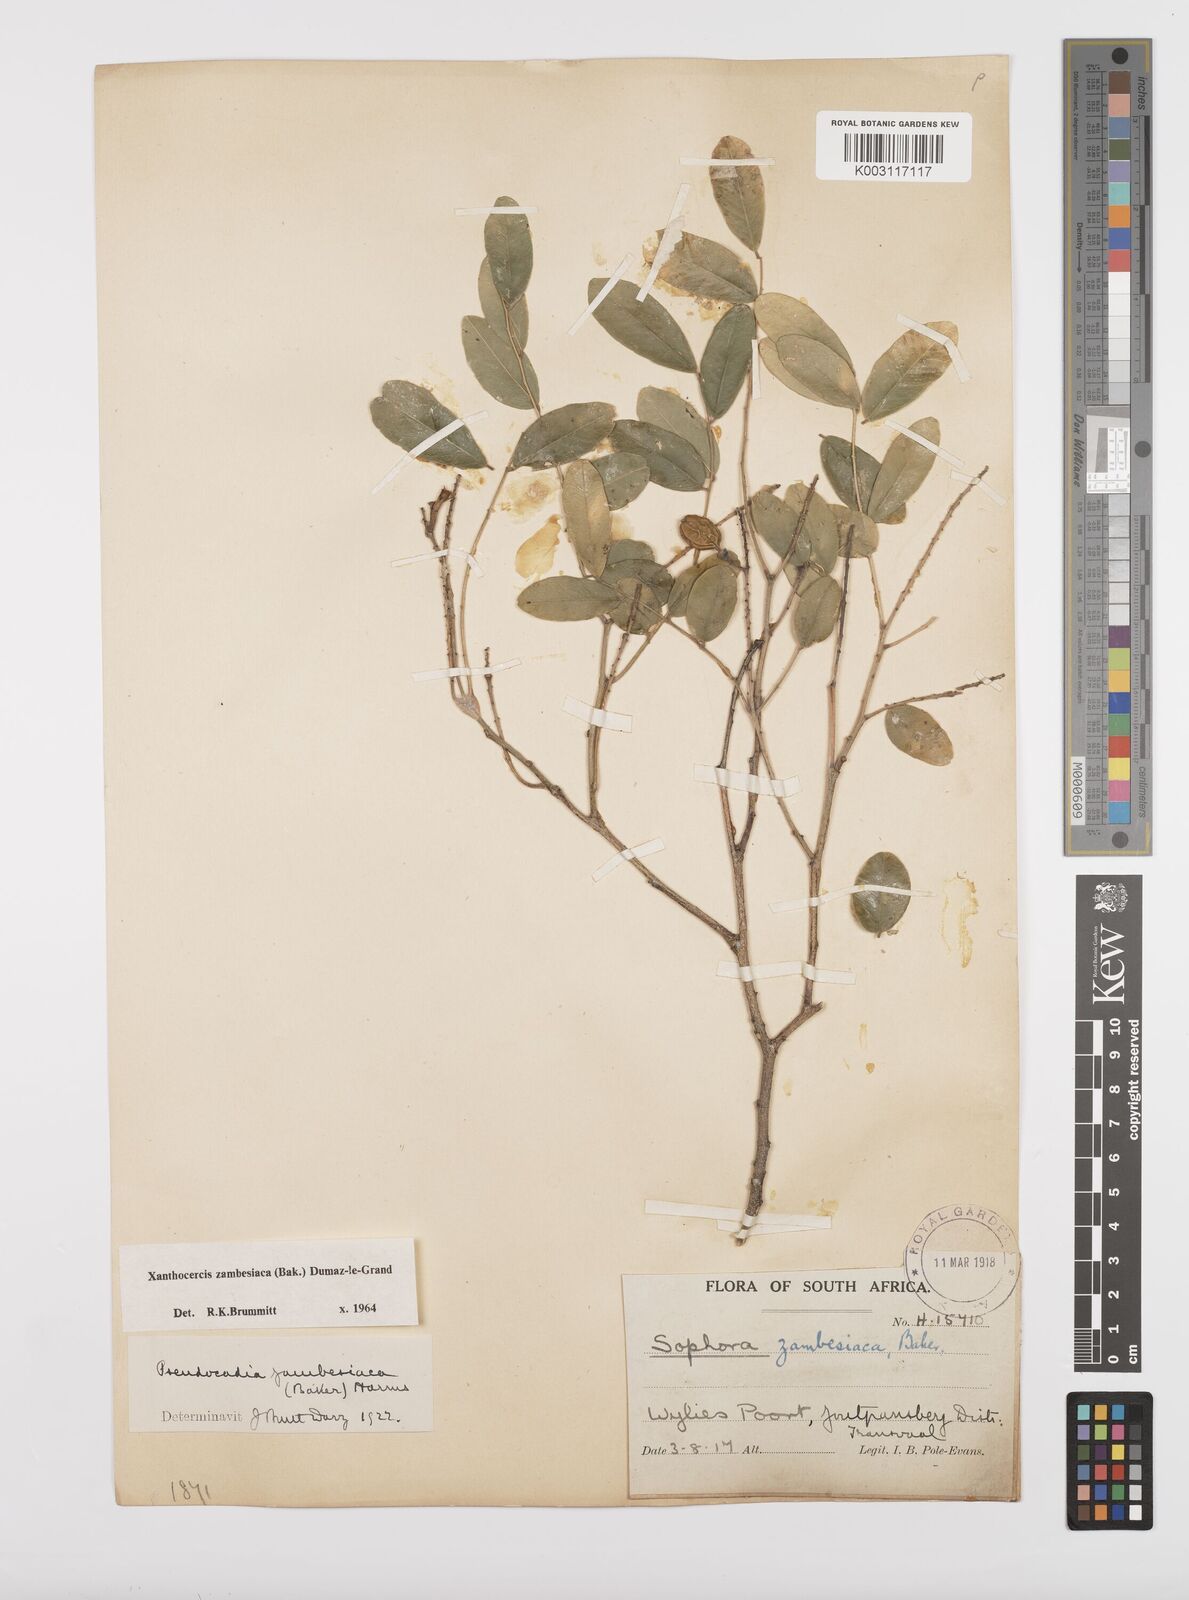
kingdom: Plantae
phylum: Tracheophyta
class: Magnoliopsida
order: Fabales
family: Fabaceae
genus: Xanthocercis
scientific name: Xanthocercis zambesiaca
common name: Nyala-tree
